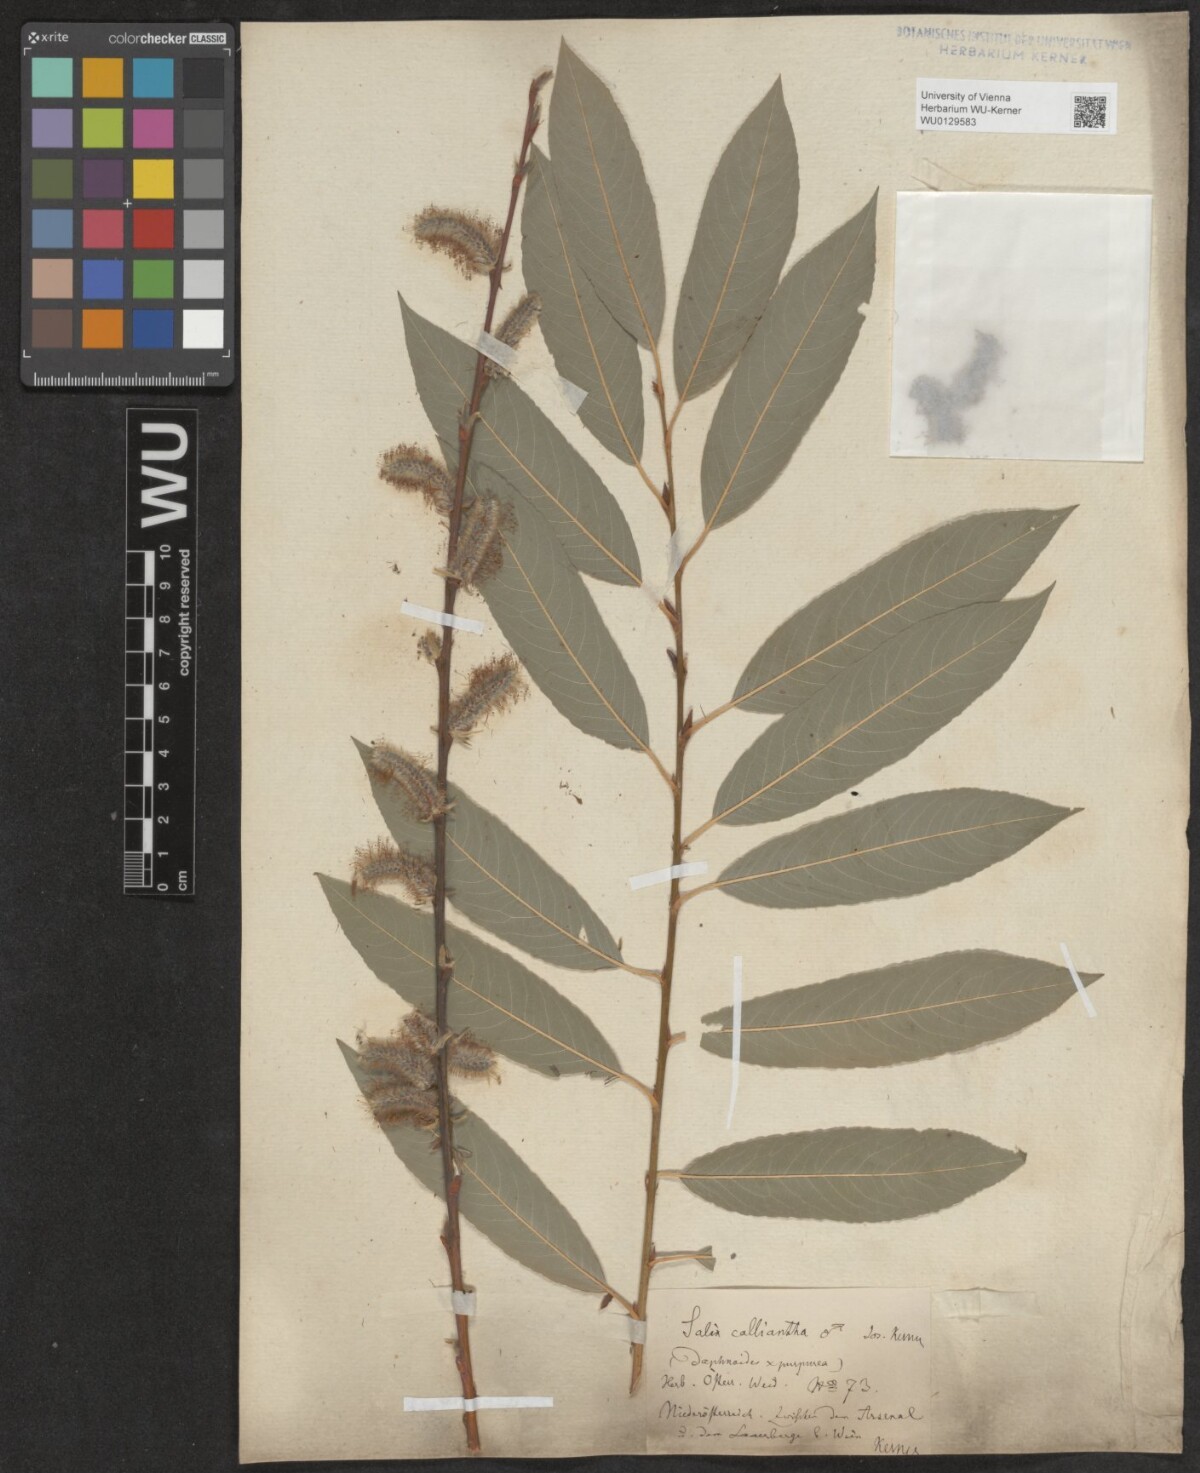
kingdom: Plantae
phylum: Tracheophyta
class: Magnoliopsida
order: Malpighiales
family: Salicaceae
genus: Salix
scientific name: Salix calliantha
